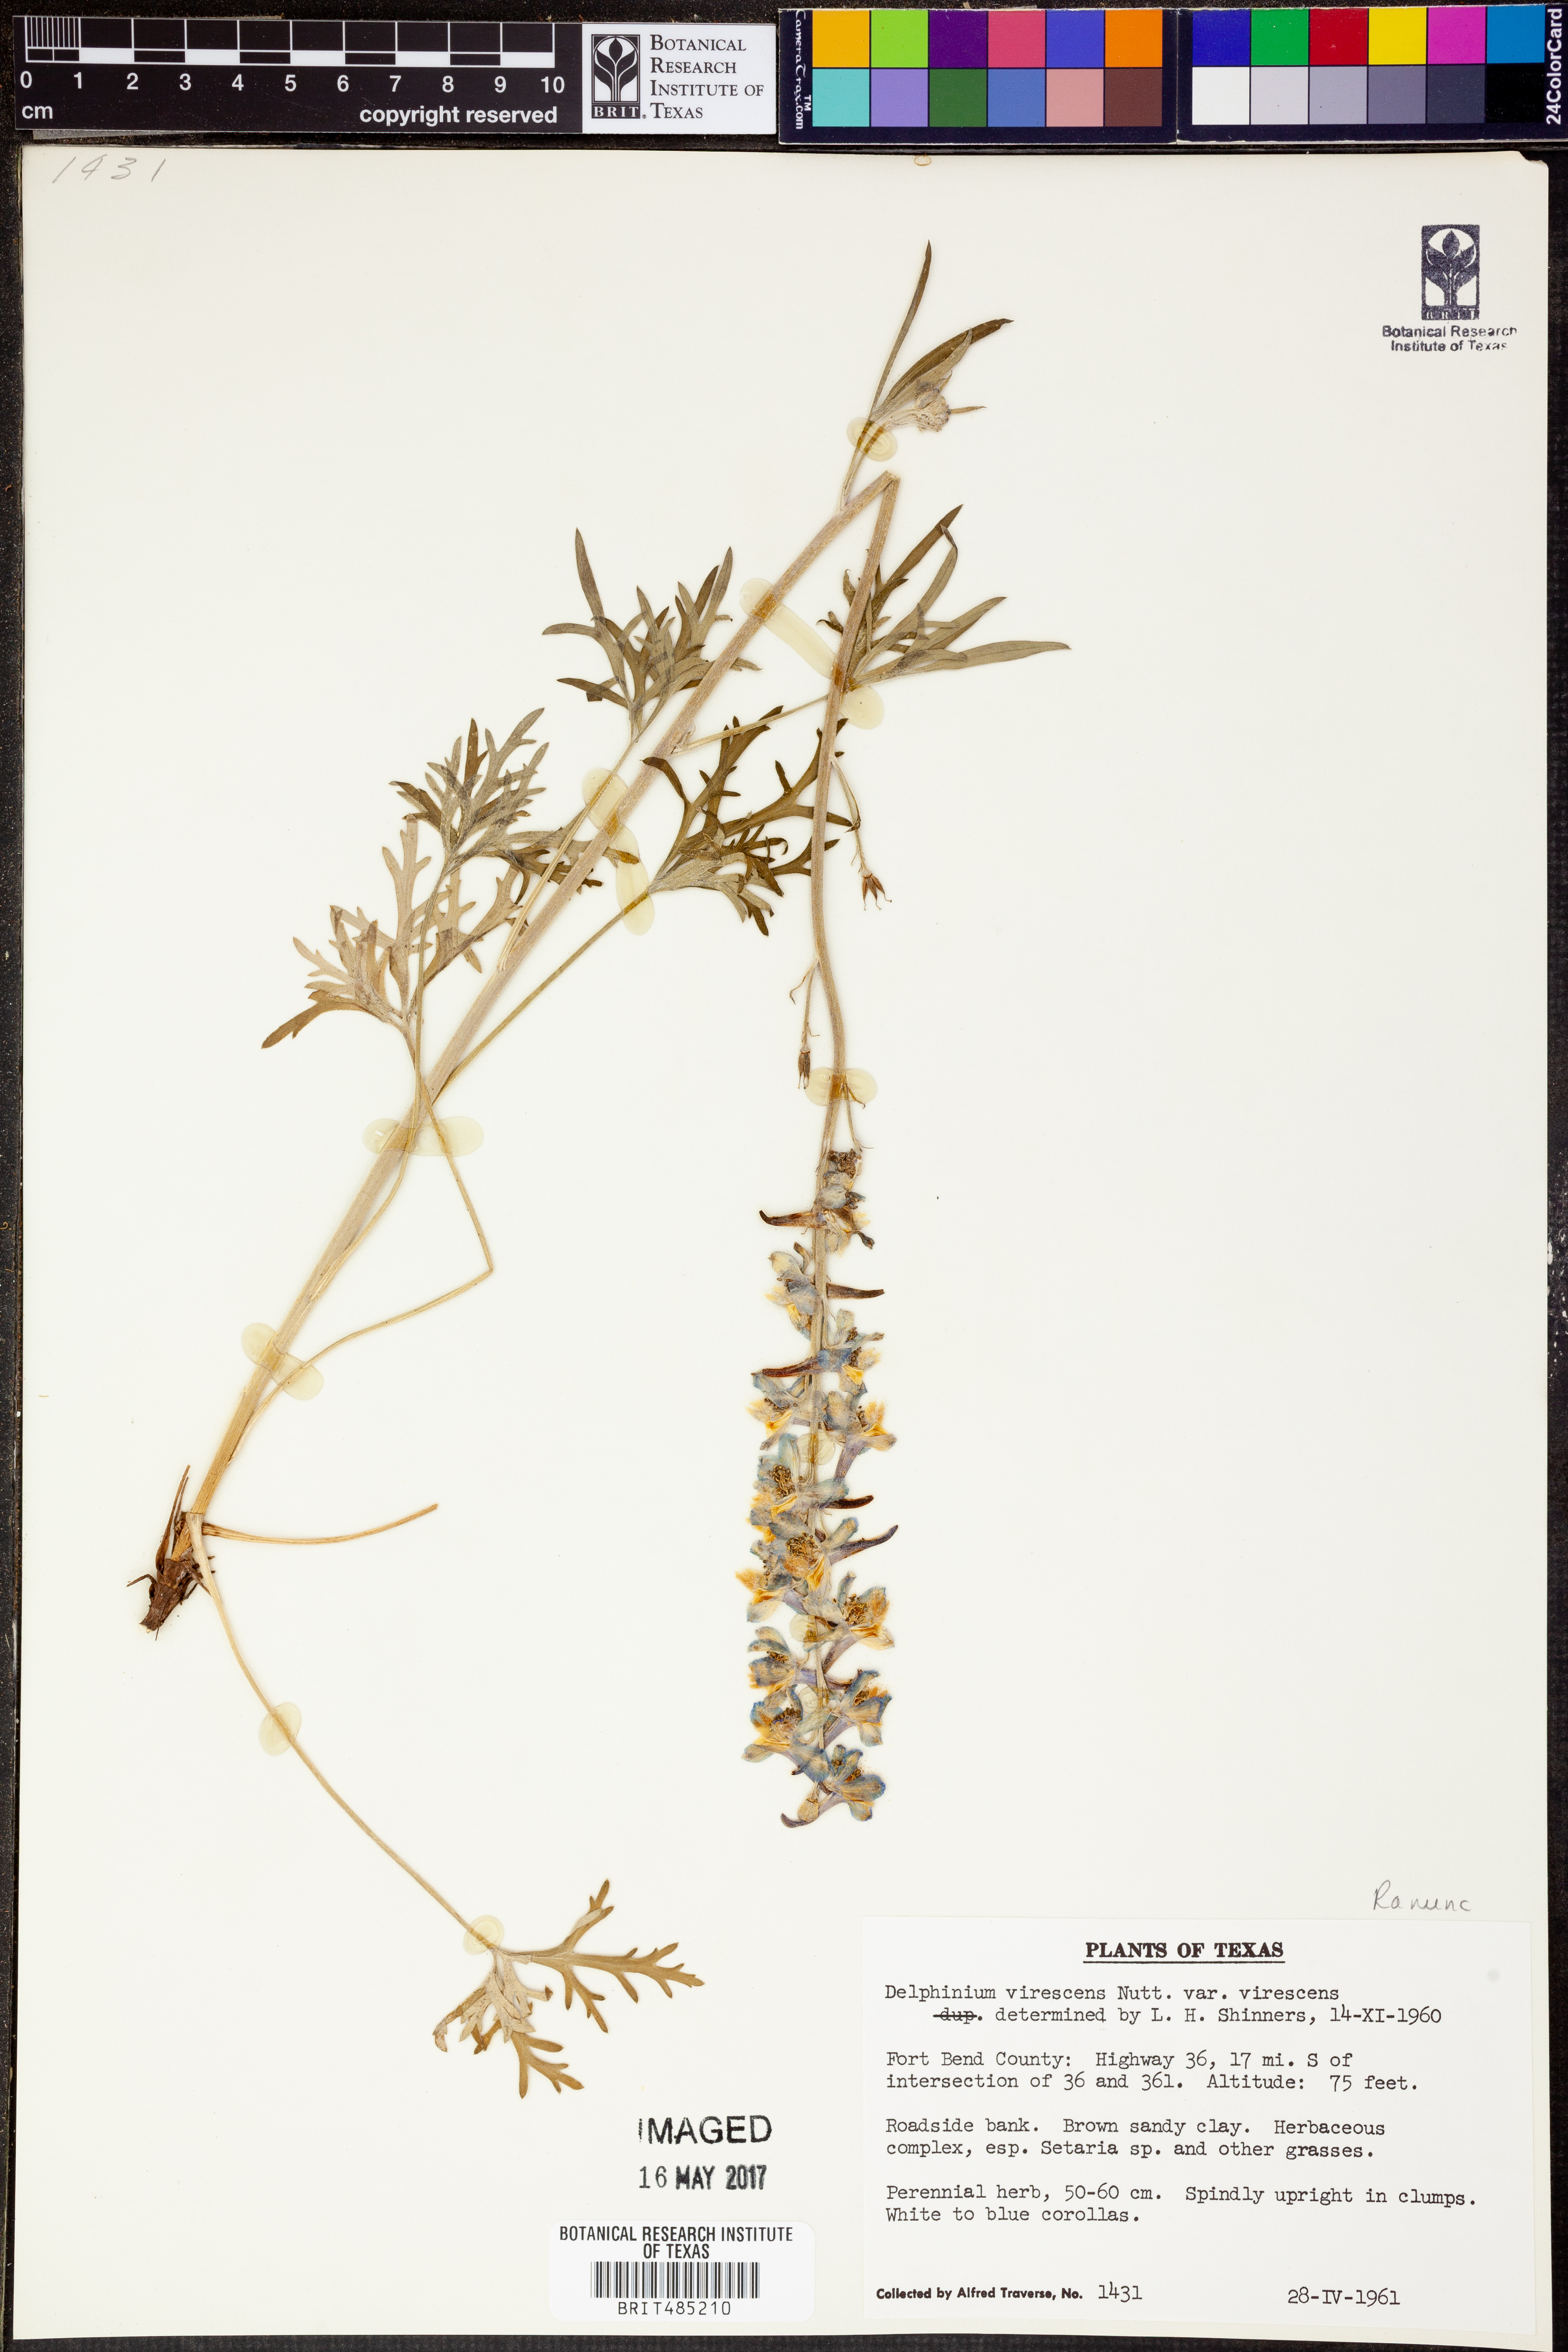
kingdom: Plantae
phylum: Tracheophyta
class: Magnoliopsida
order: Ranunculales
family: Ranunculaceae
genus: Delphinium
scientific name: Delphinium carolinianum
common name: Carolina larkspur
